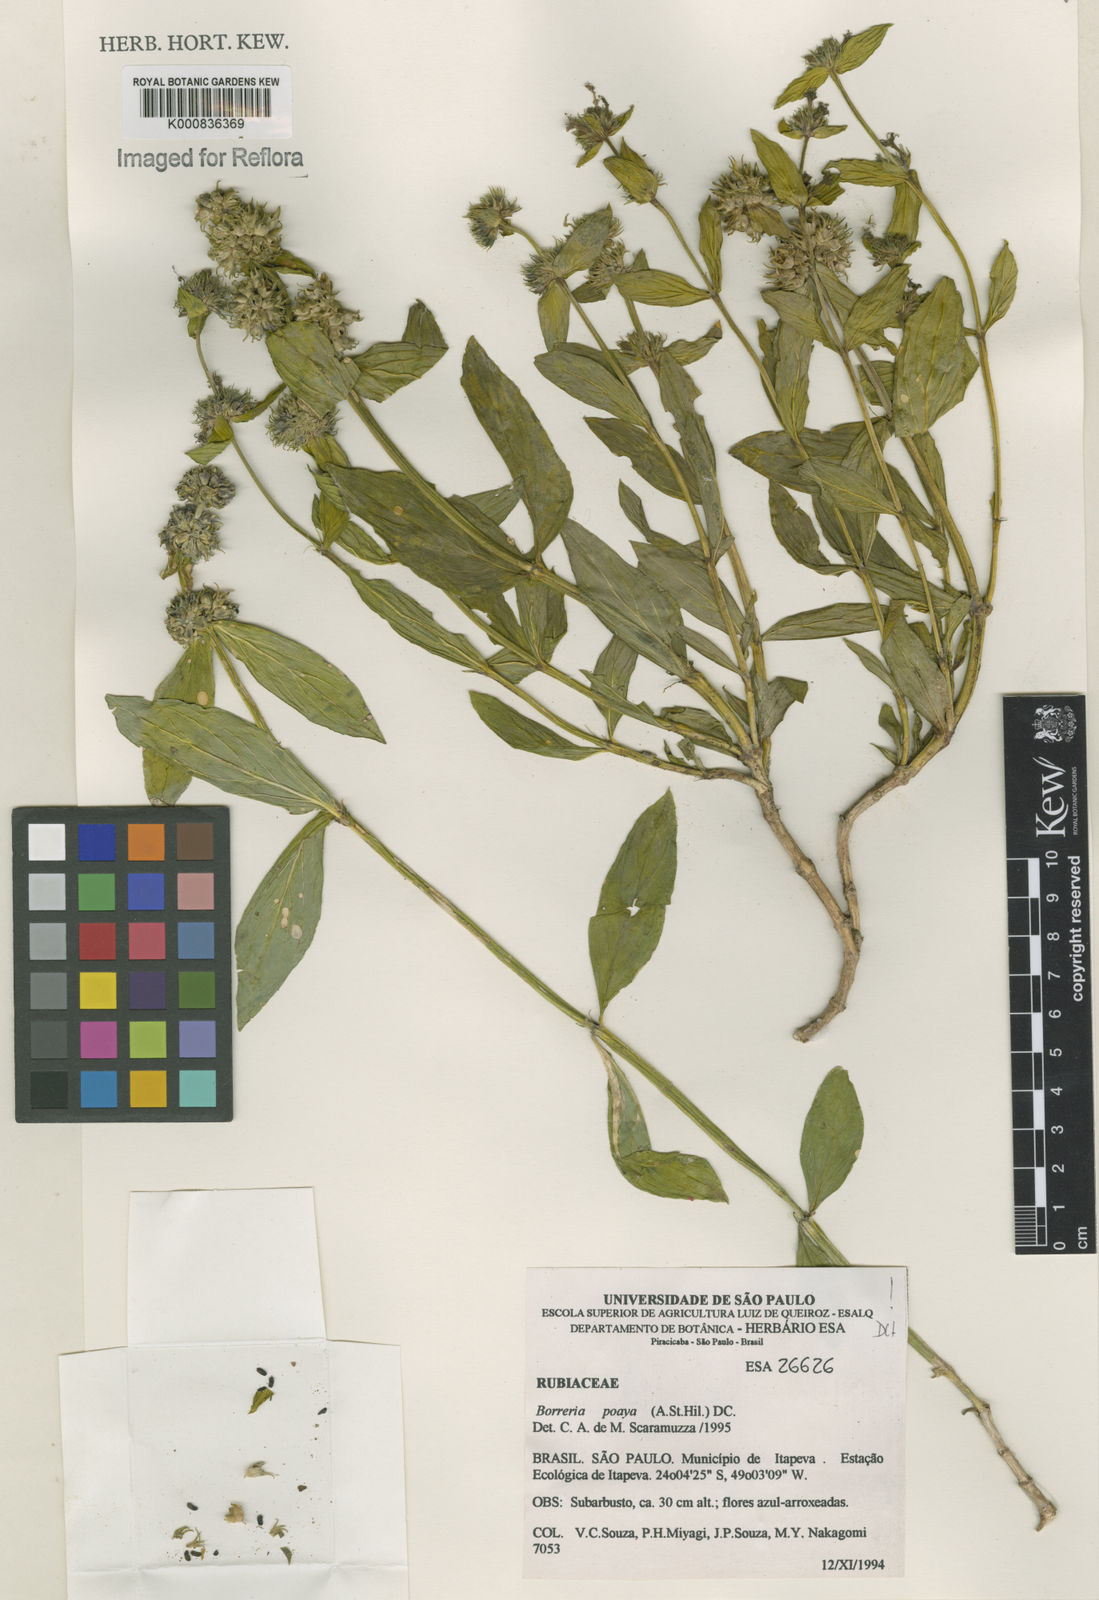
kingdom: Plantae
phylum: Tracheophyta
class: Magnoliopsida
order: Gentianales
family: Rubiaceae
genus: Spermacoce
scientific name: Spermacoce poaya
